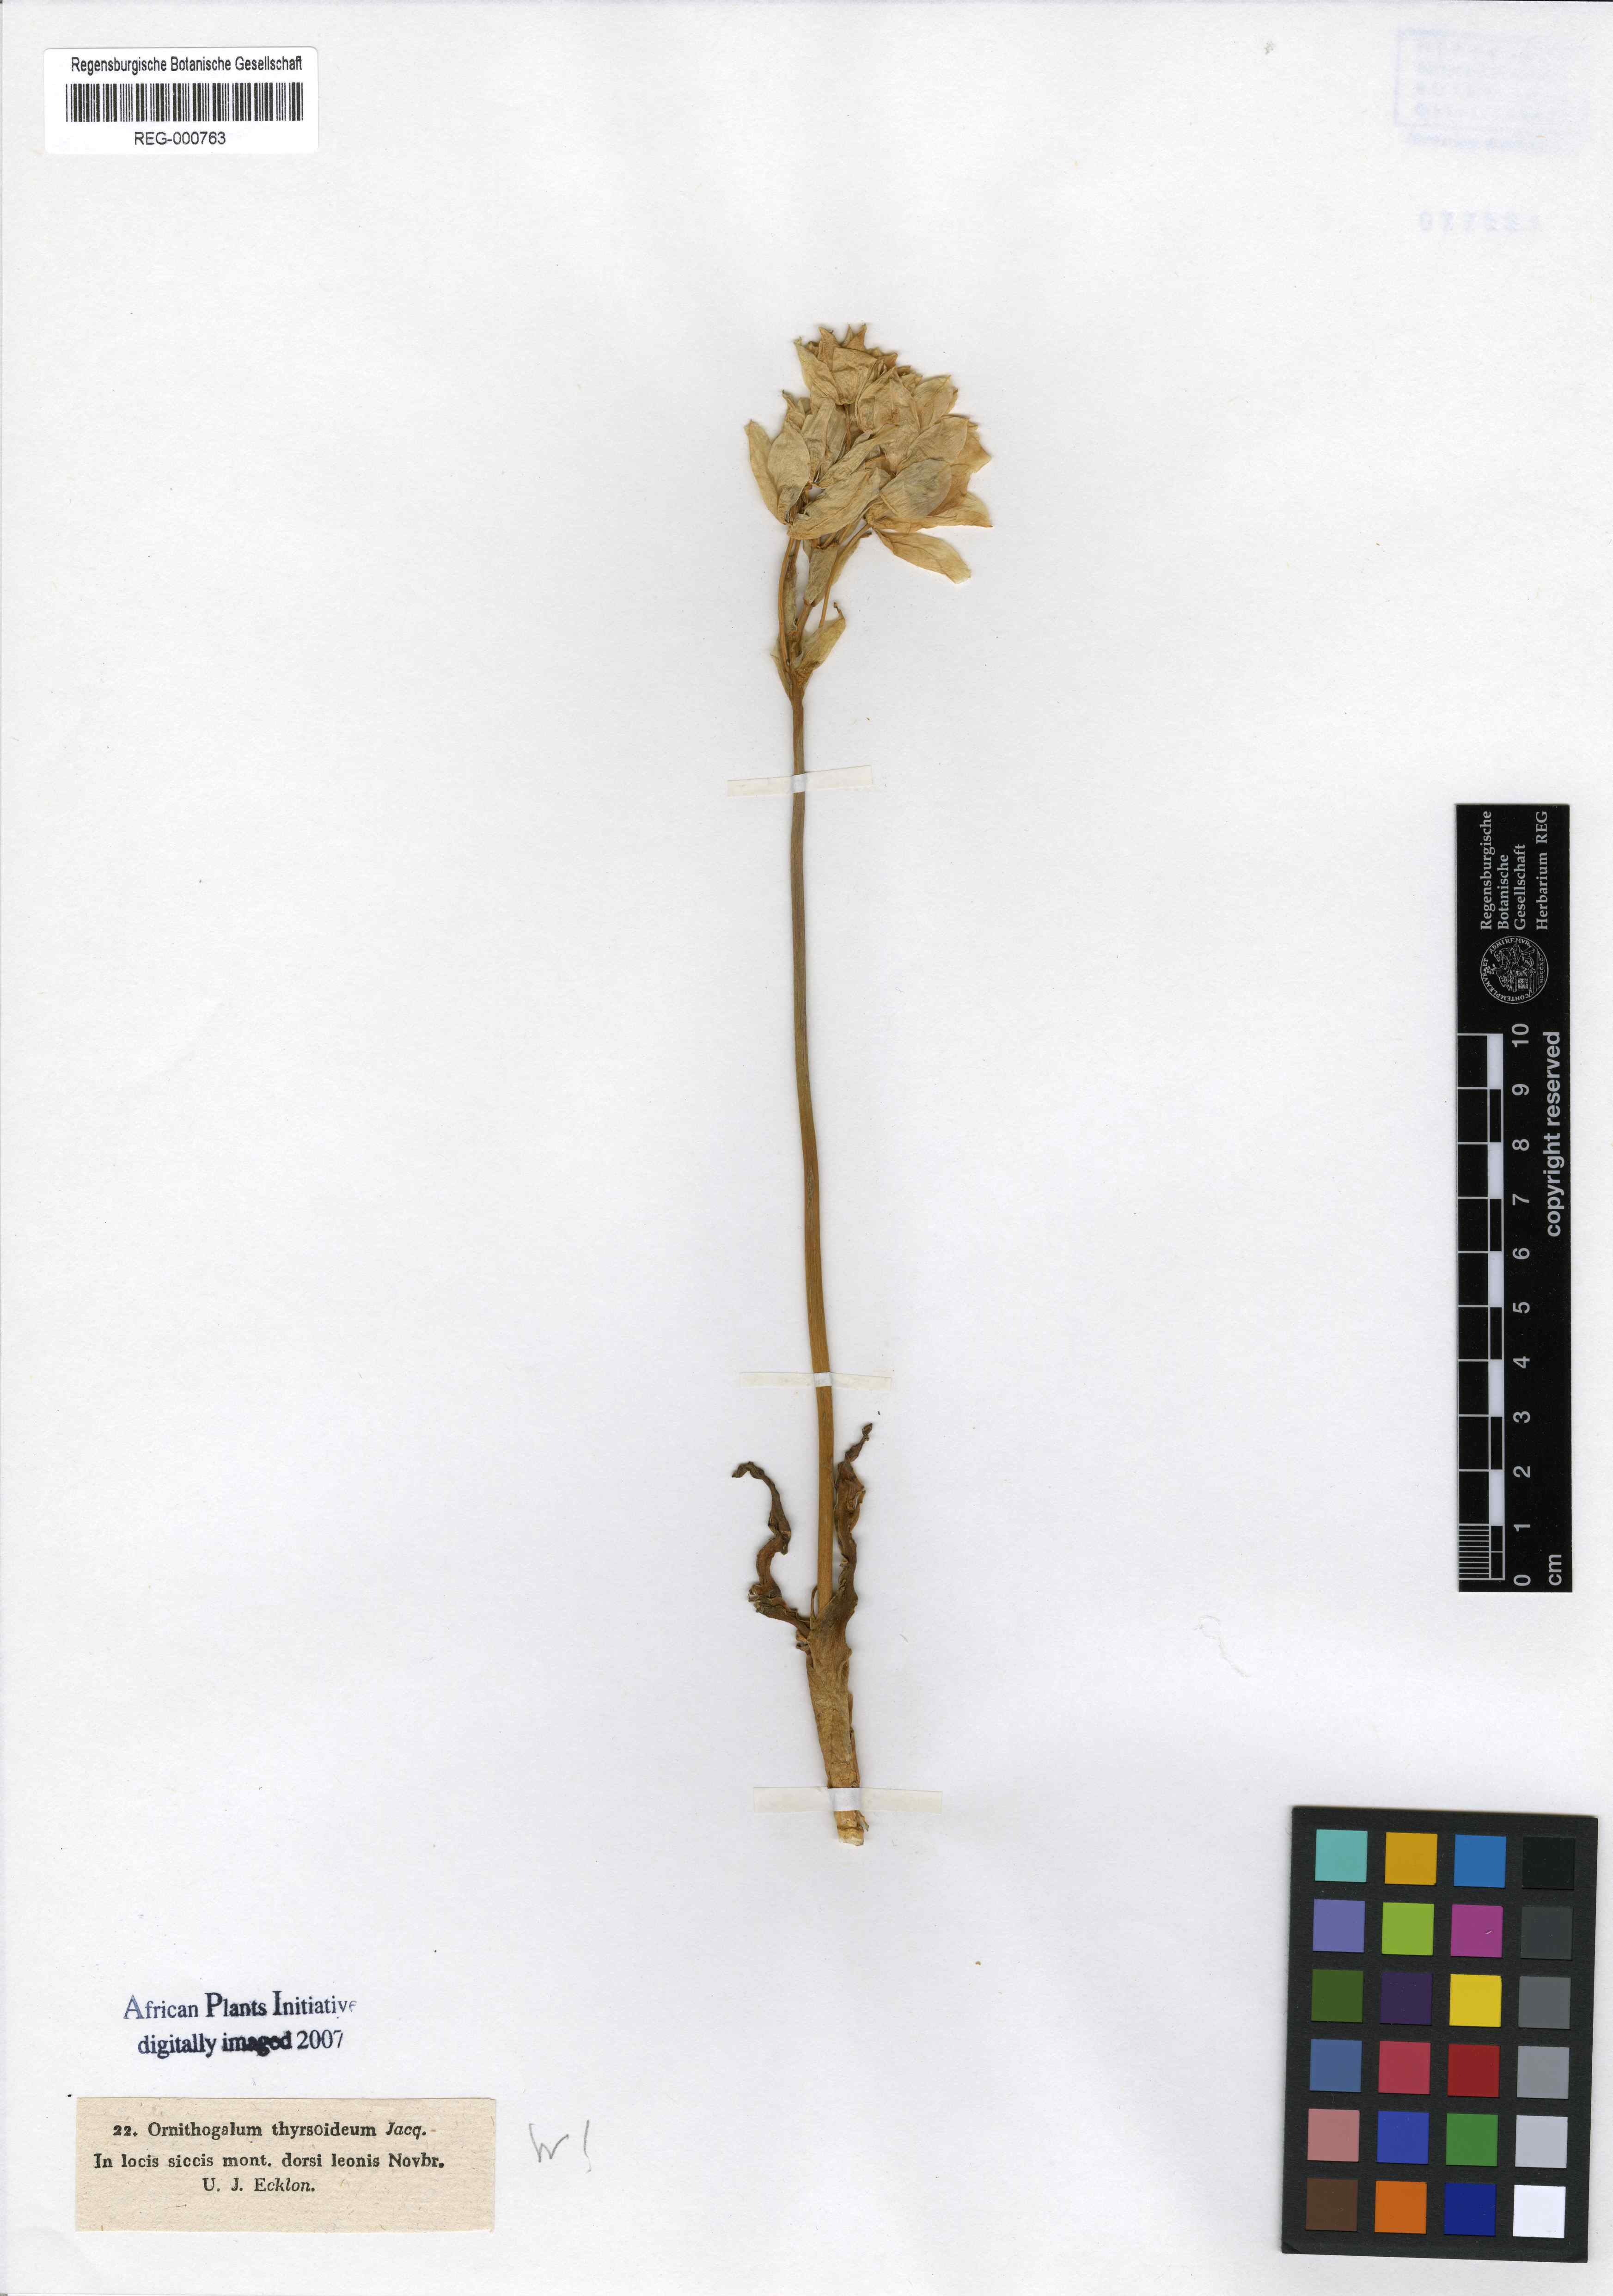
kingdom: Plantae
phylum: Tracheophyta
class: Liliopsida
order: Asparagales
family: Asparagaceae
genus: Ornithogalum
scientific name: Ornithogalum
